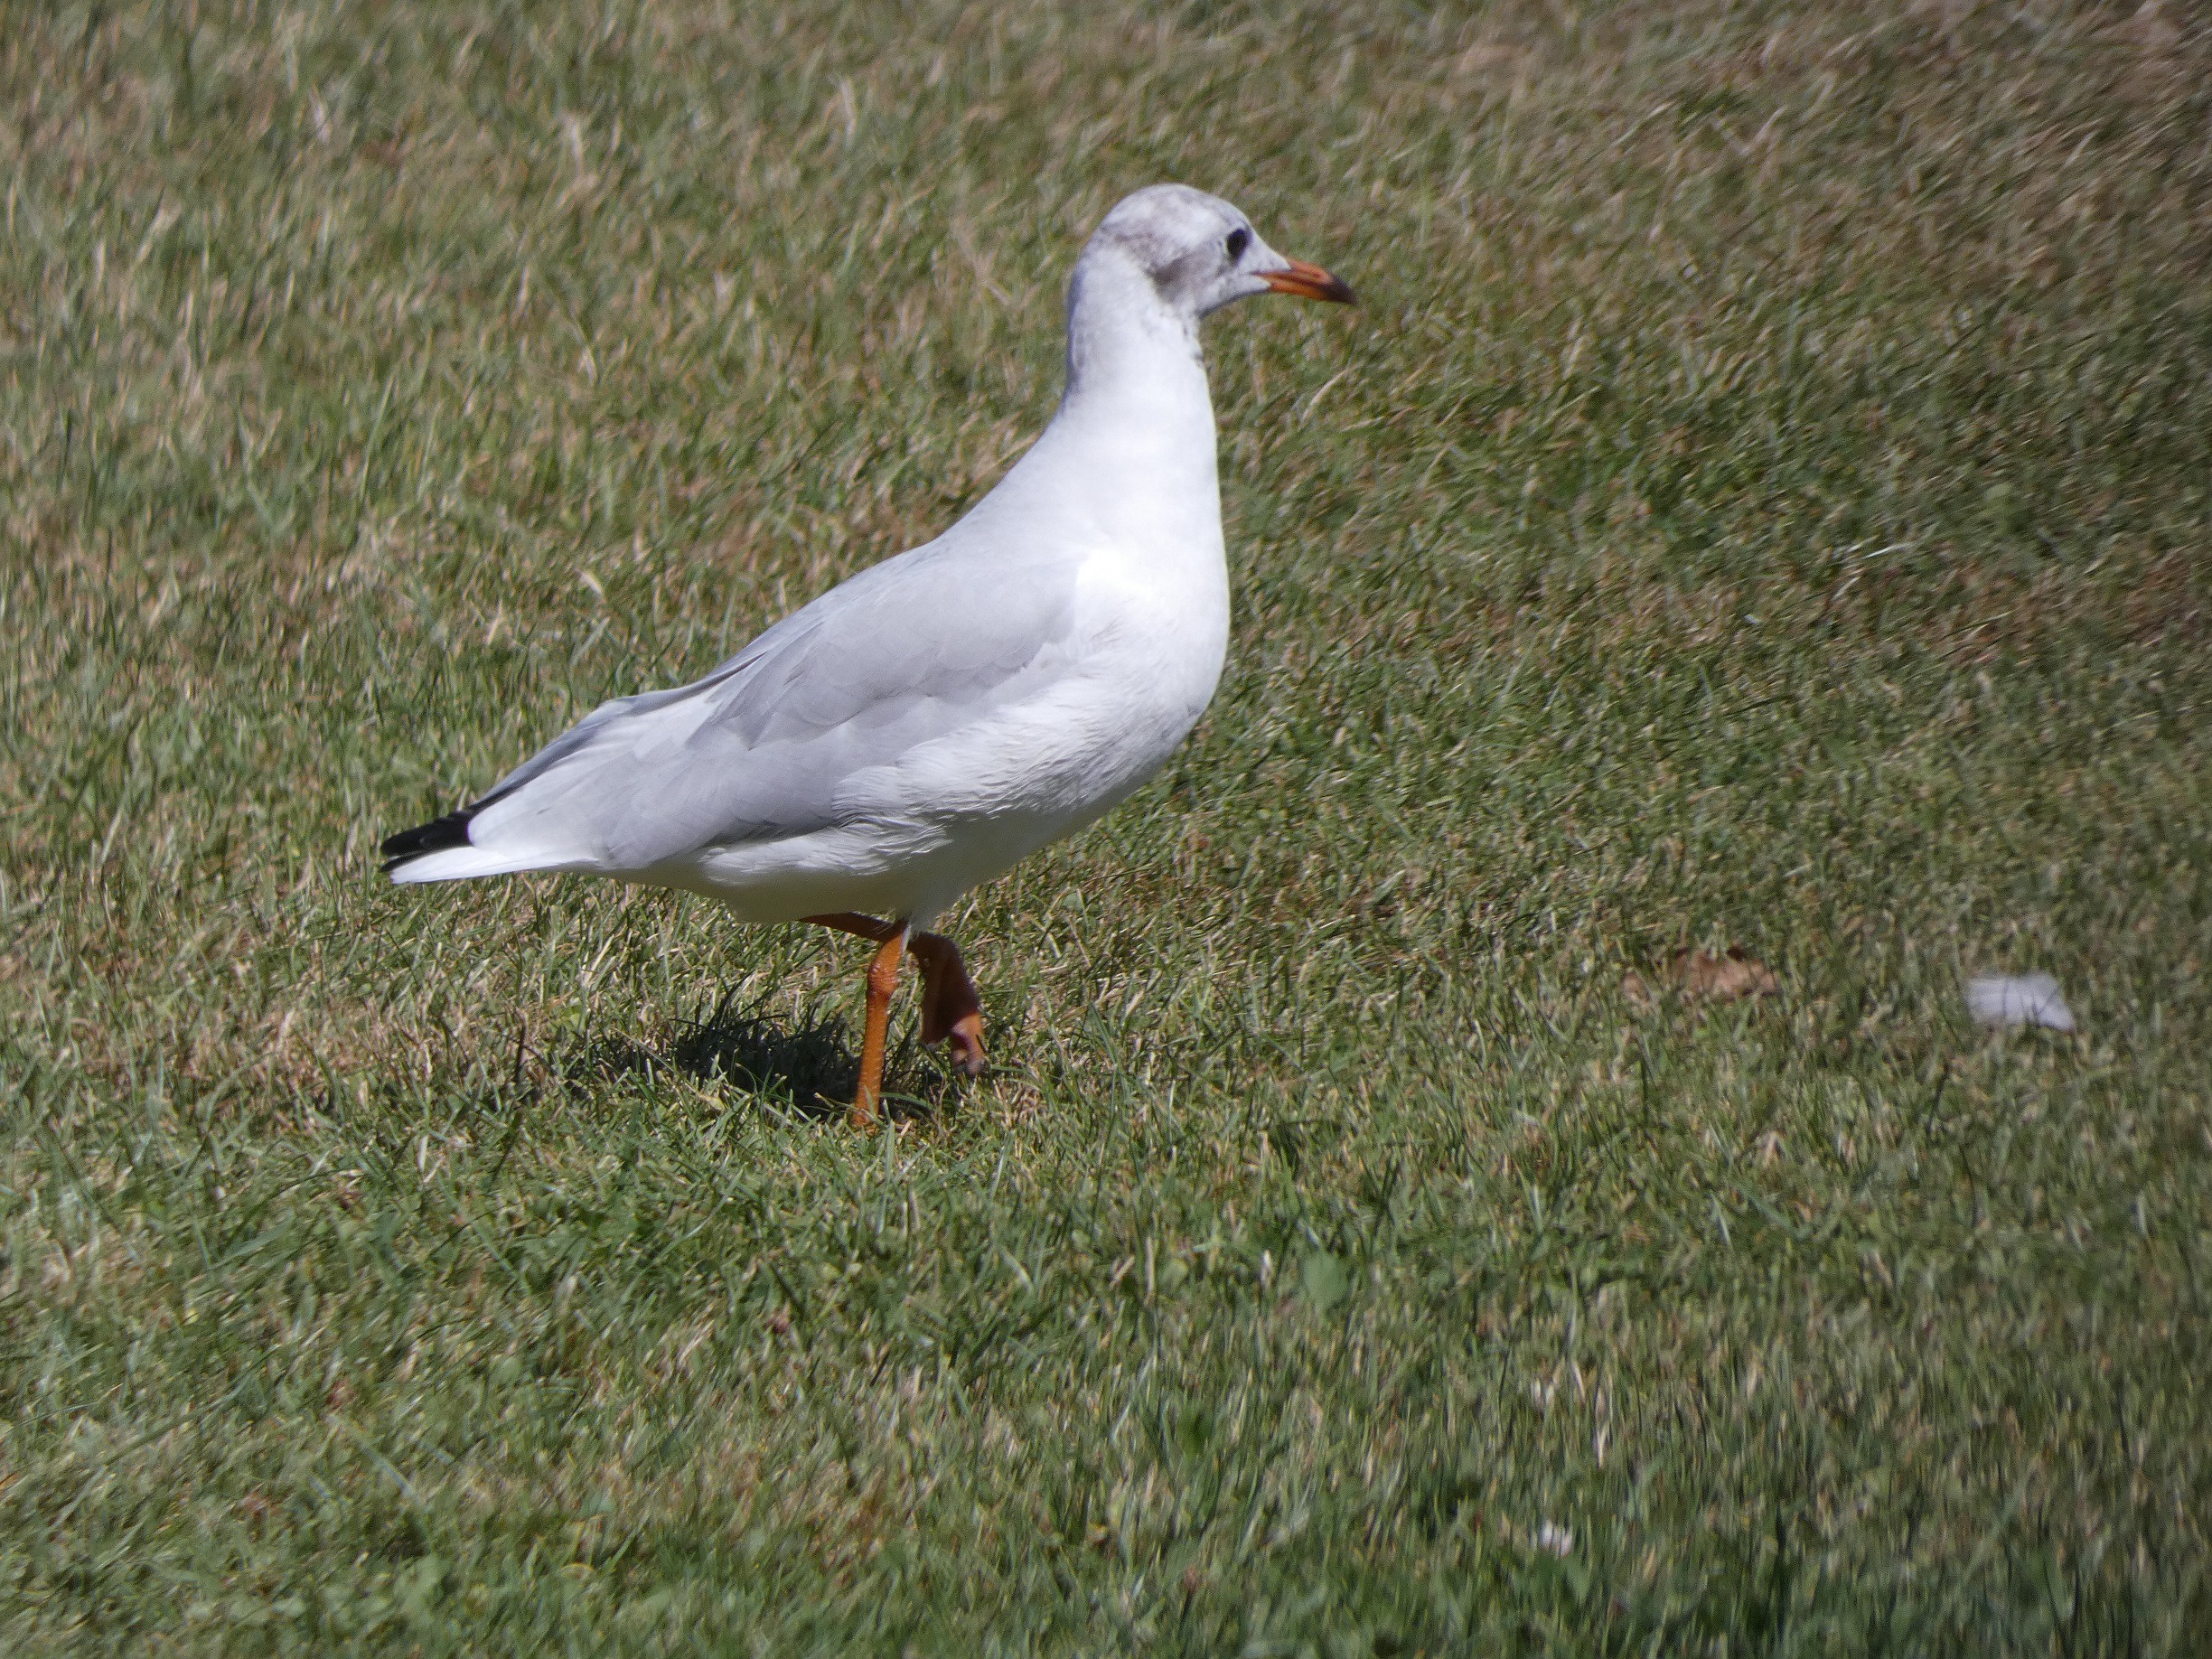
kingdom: Animalia
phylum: Chordata
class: Aves
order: Charadriiformes
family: Laridae
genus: Chroicocephalus
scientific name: Chroicocephalus ridibundus
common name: Hættemåge
